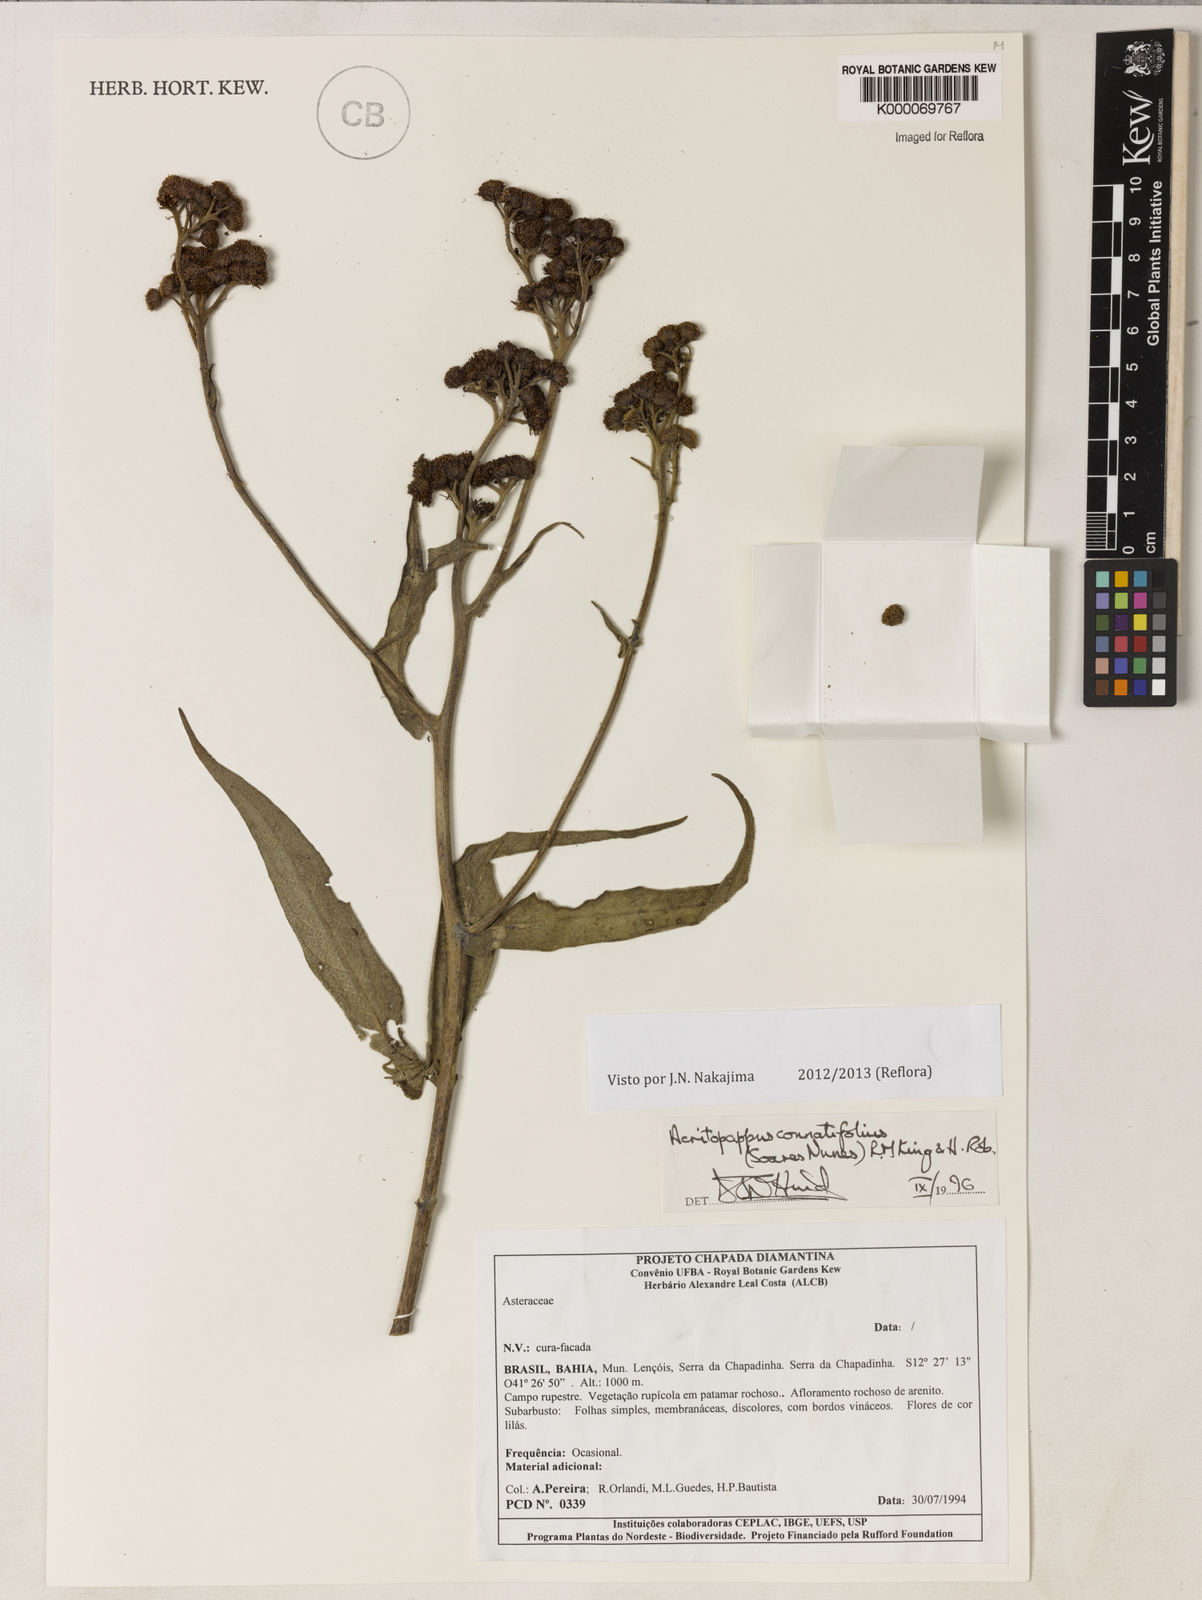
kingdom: Plantae
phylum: Tracheophyta
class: Magnoliopsida
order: Asterales
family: Asteraceae
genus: Acritopappus
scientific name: Acritopappus connatifolius
